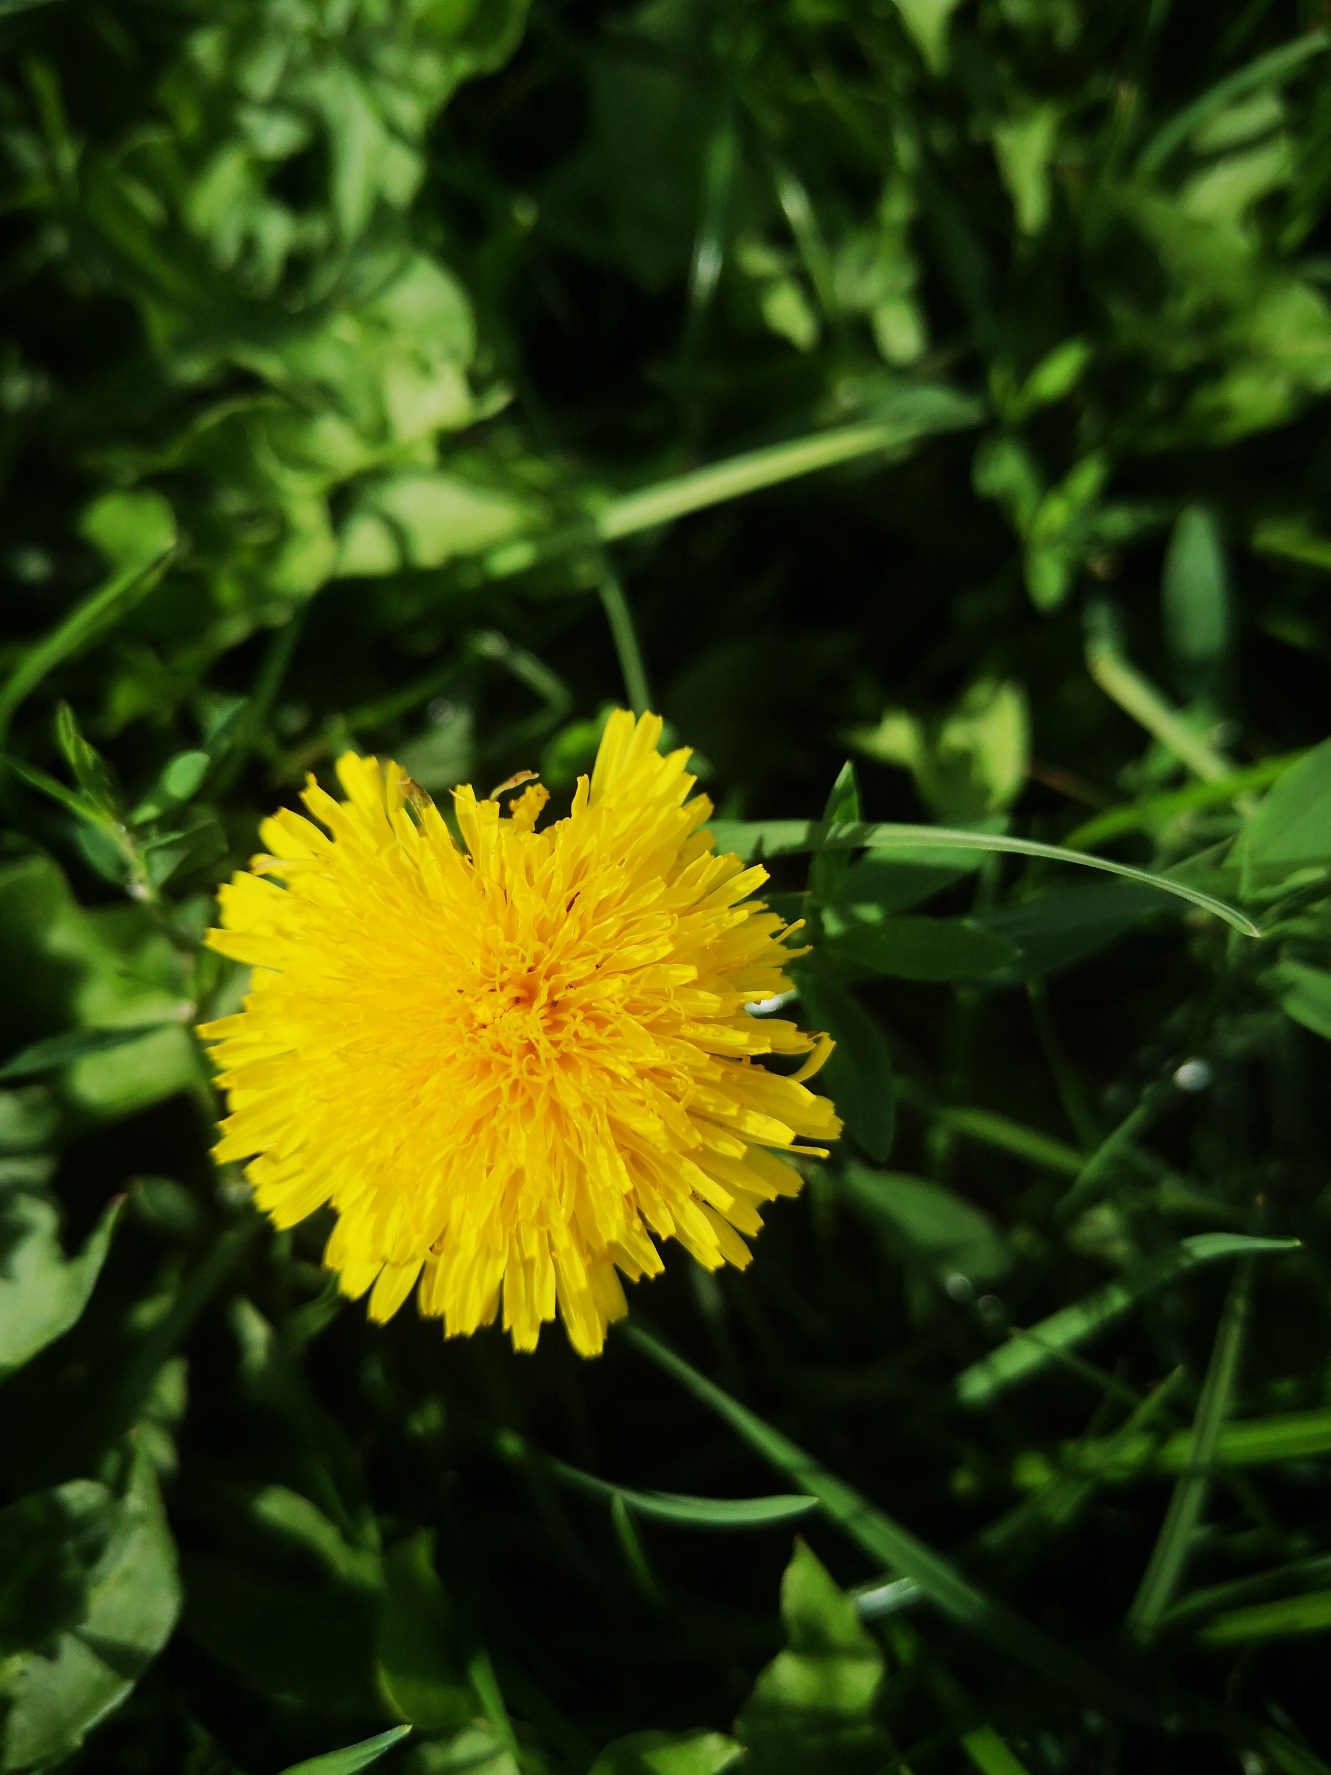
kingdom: Plantae
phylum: Tracheophyta
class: Magnoliopsida
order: Asterales
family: Asteraceae
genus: Taraxacum
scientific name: Taraxacum
